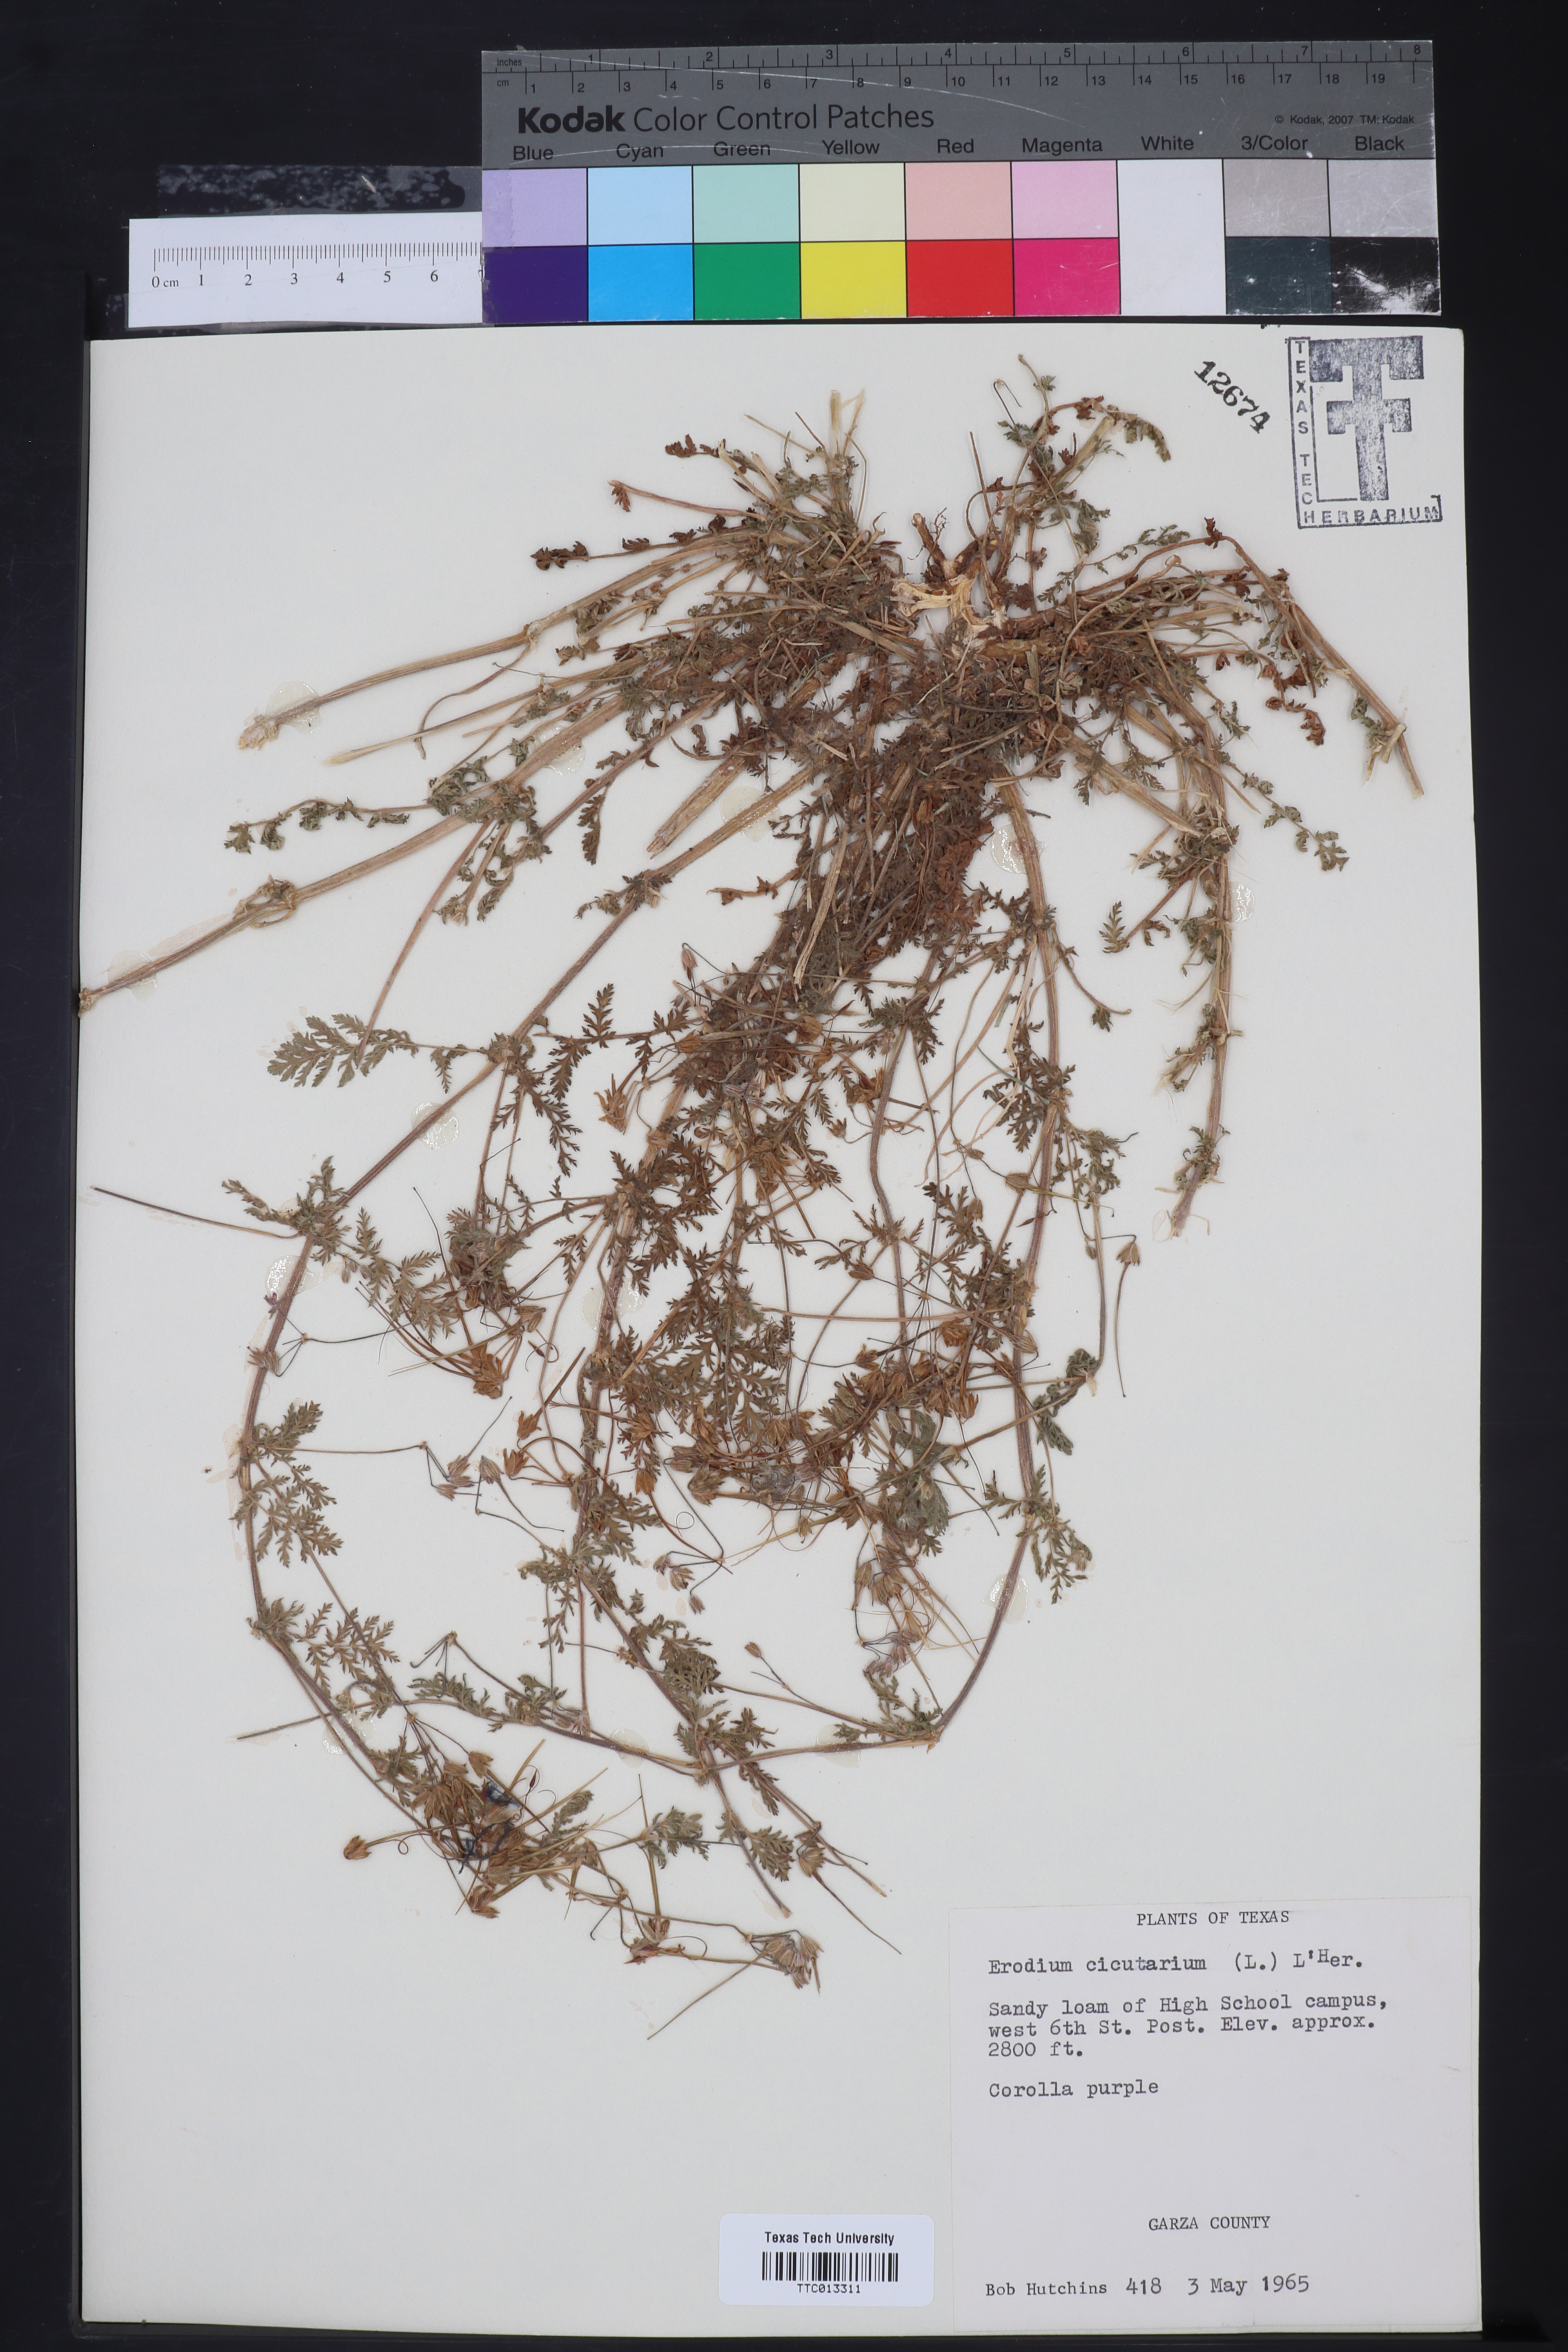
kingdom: Plantae
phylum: Tracheophyta
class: Magnoliopsida
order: Geraniales
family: Geraniaceae
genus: Erodium
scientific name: Erodium cicutarium
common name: Common stork's-bill
